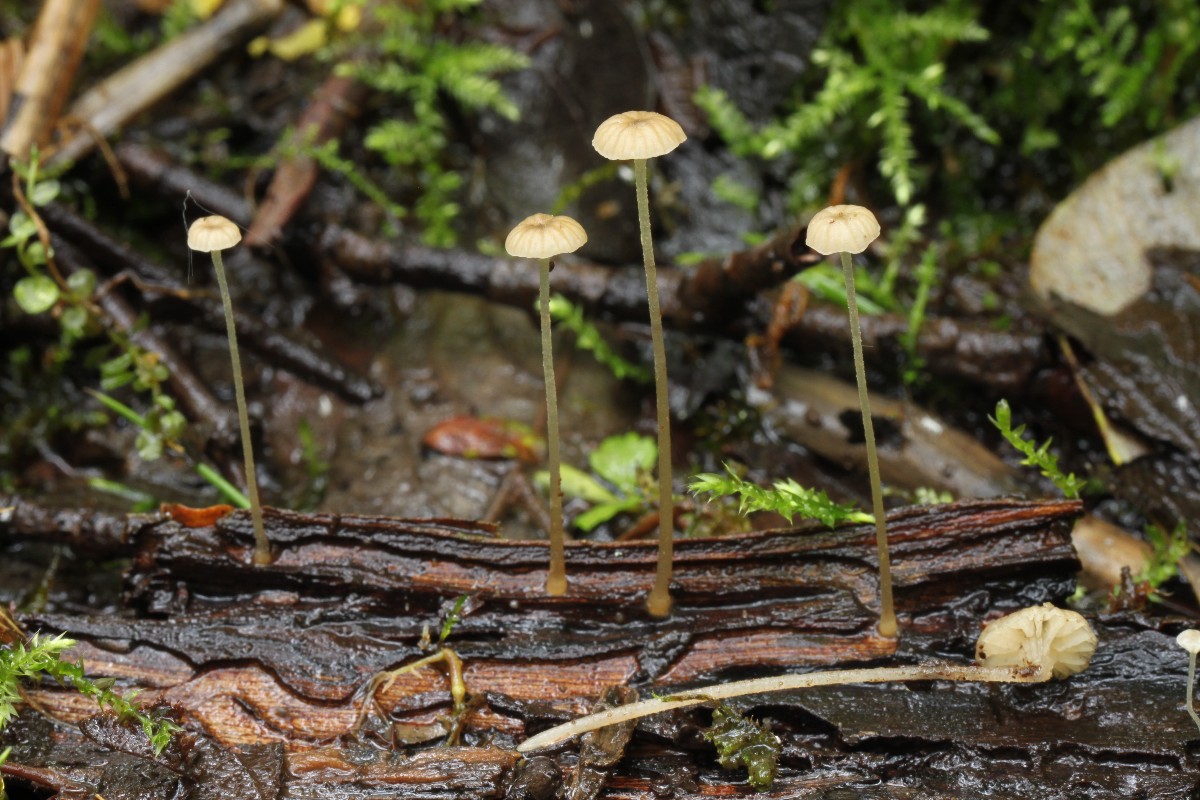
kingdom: Fungi
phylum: Basidiomycota
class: Agaricomycetes
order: Agaricales
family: Porotheleaceae
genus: Phloeomana
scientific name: Phloeomana speirea
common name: kvist-huesvamp
